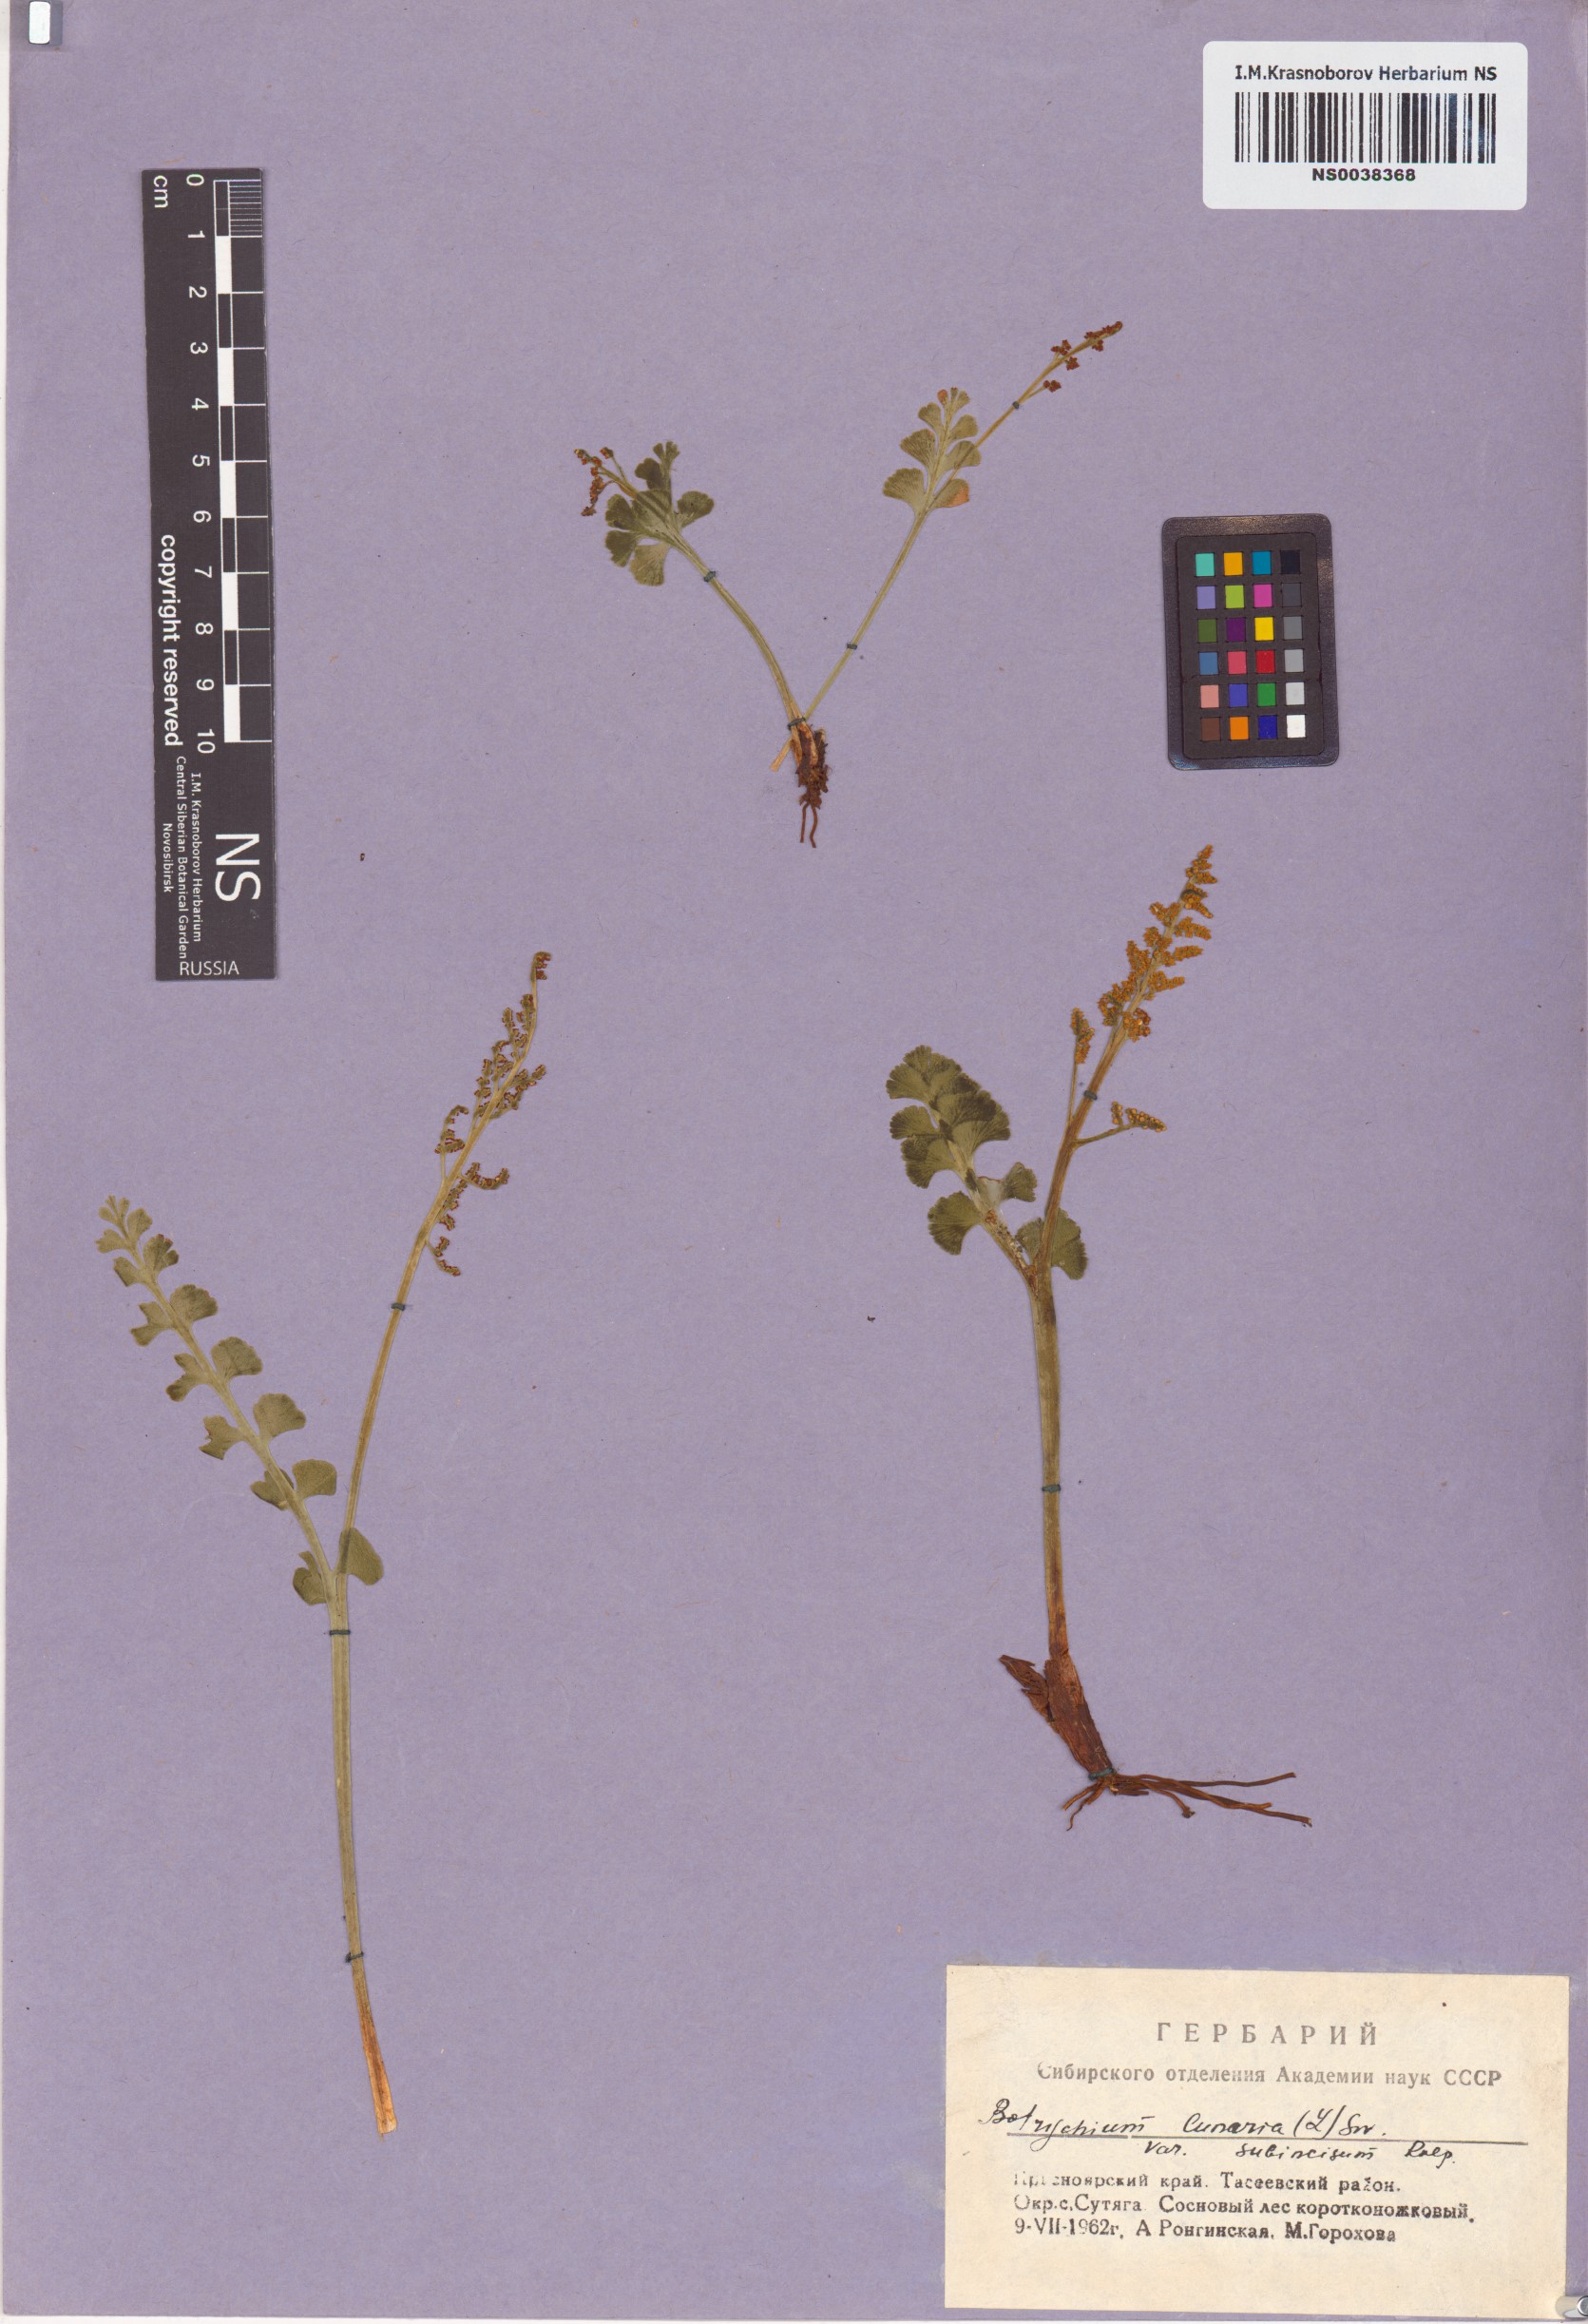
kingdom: Plantae
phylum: Tracheophyta
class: Polypodiopsida
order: Ophioglossales
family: Ophioglossaceae
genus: Botrychium
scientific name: Botrychium lunaria
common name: Moonwort
